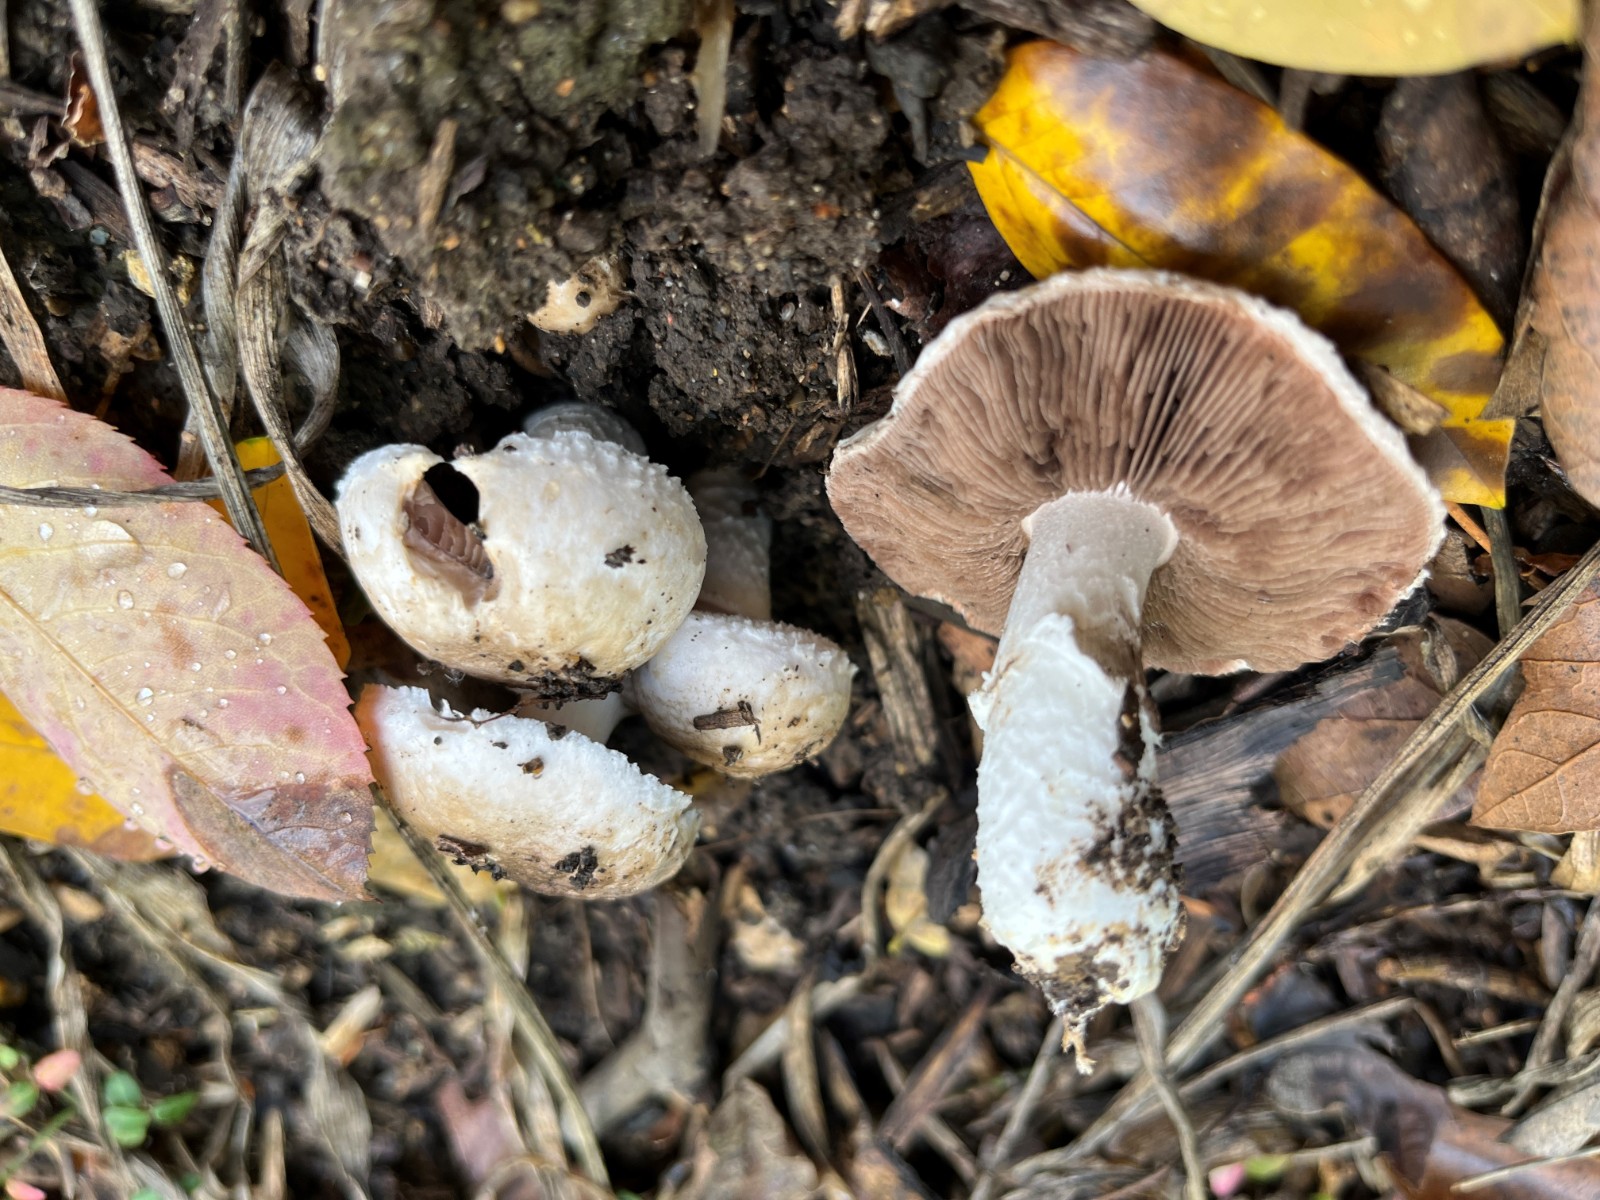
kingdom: Fungi
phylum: Basidiomycota
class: Agaricomycetes
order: Agaricales
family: Agaricaceae
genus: Agaricus
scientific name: Agaricus
